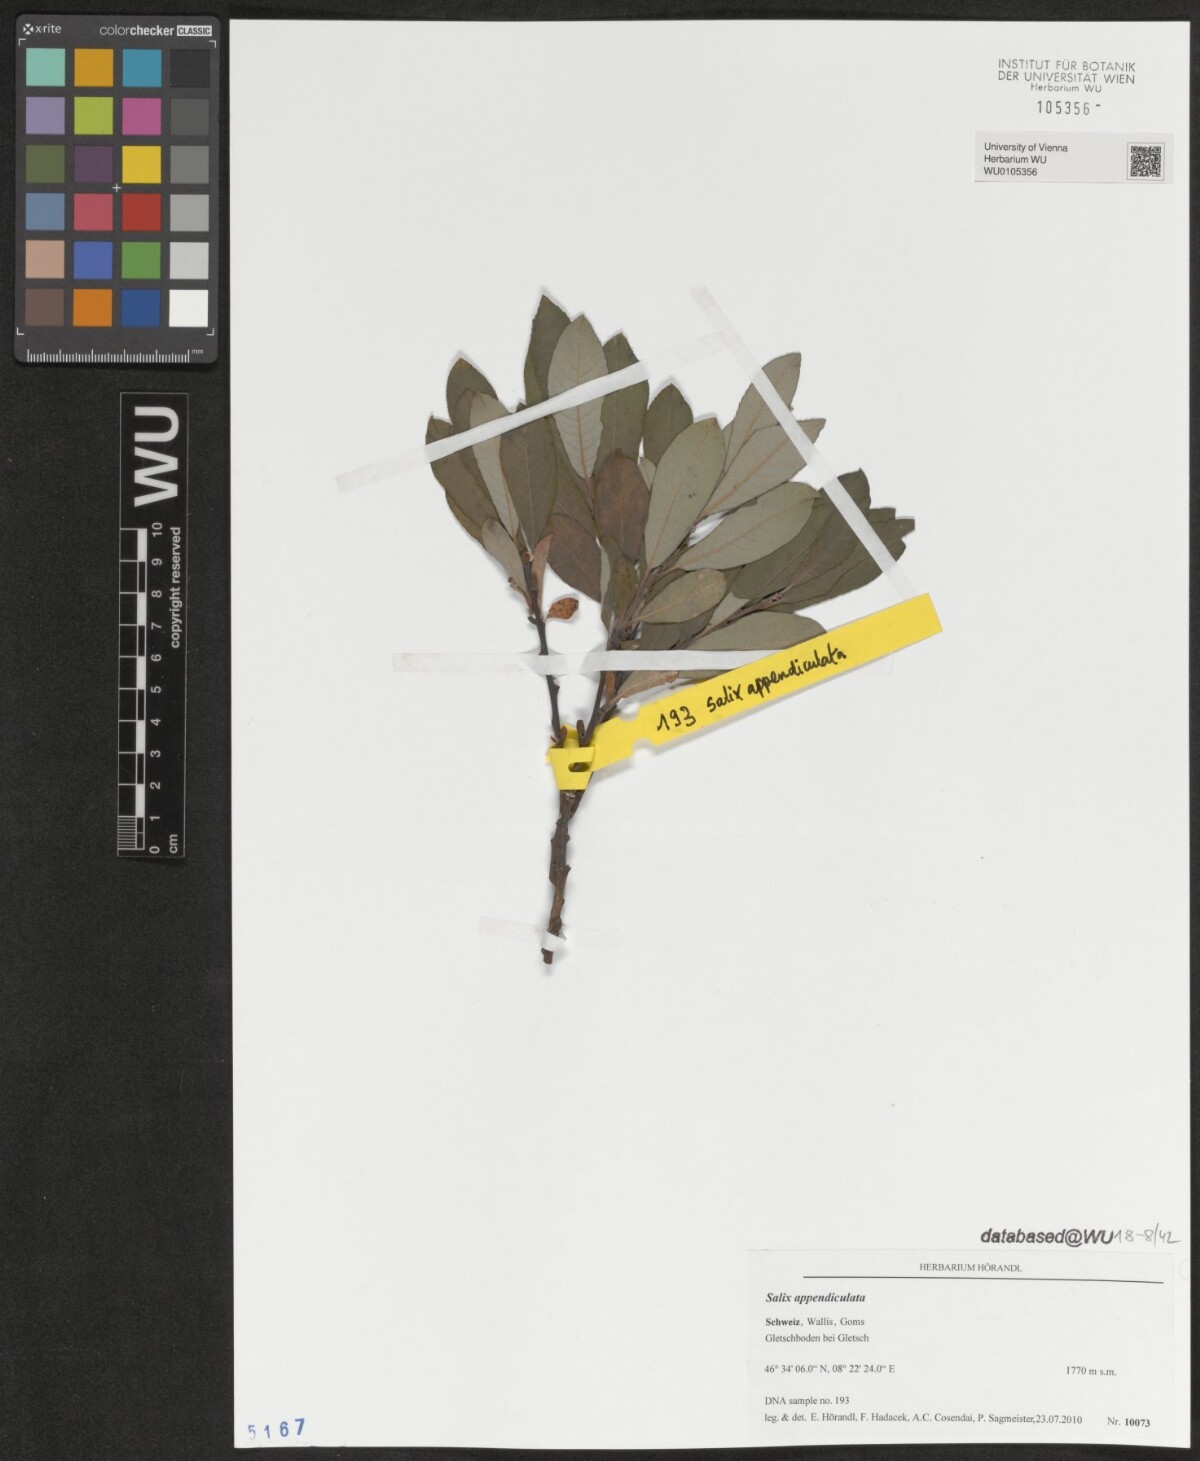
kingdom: Plantae
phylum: Tracheophyta
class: Magnoliopsida
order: Malpighiales
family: Salicaceae
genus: Salix
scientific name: Salix appendiculata
